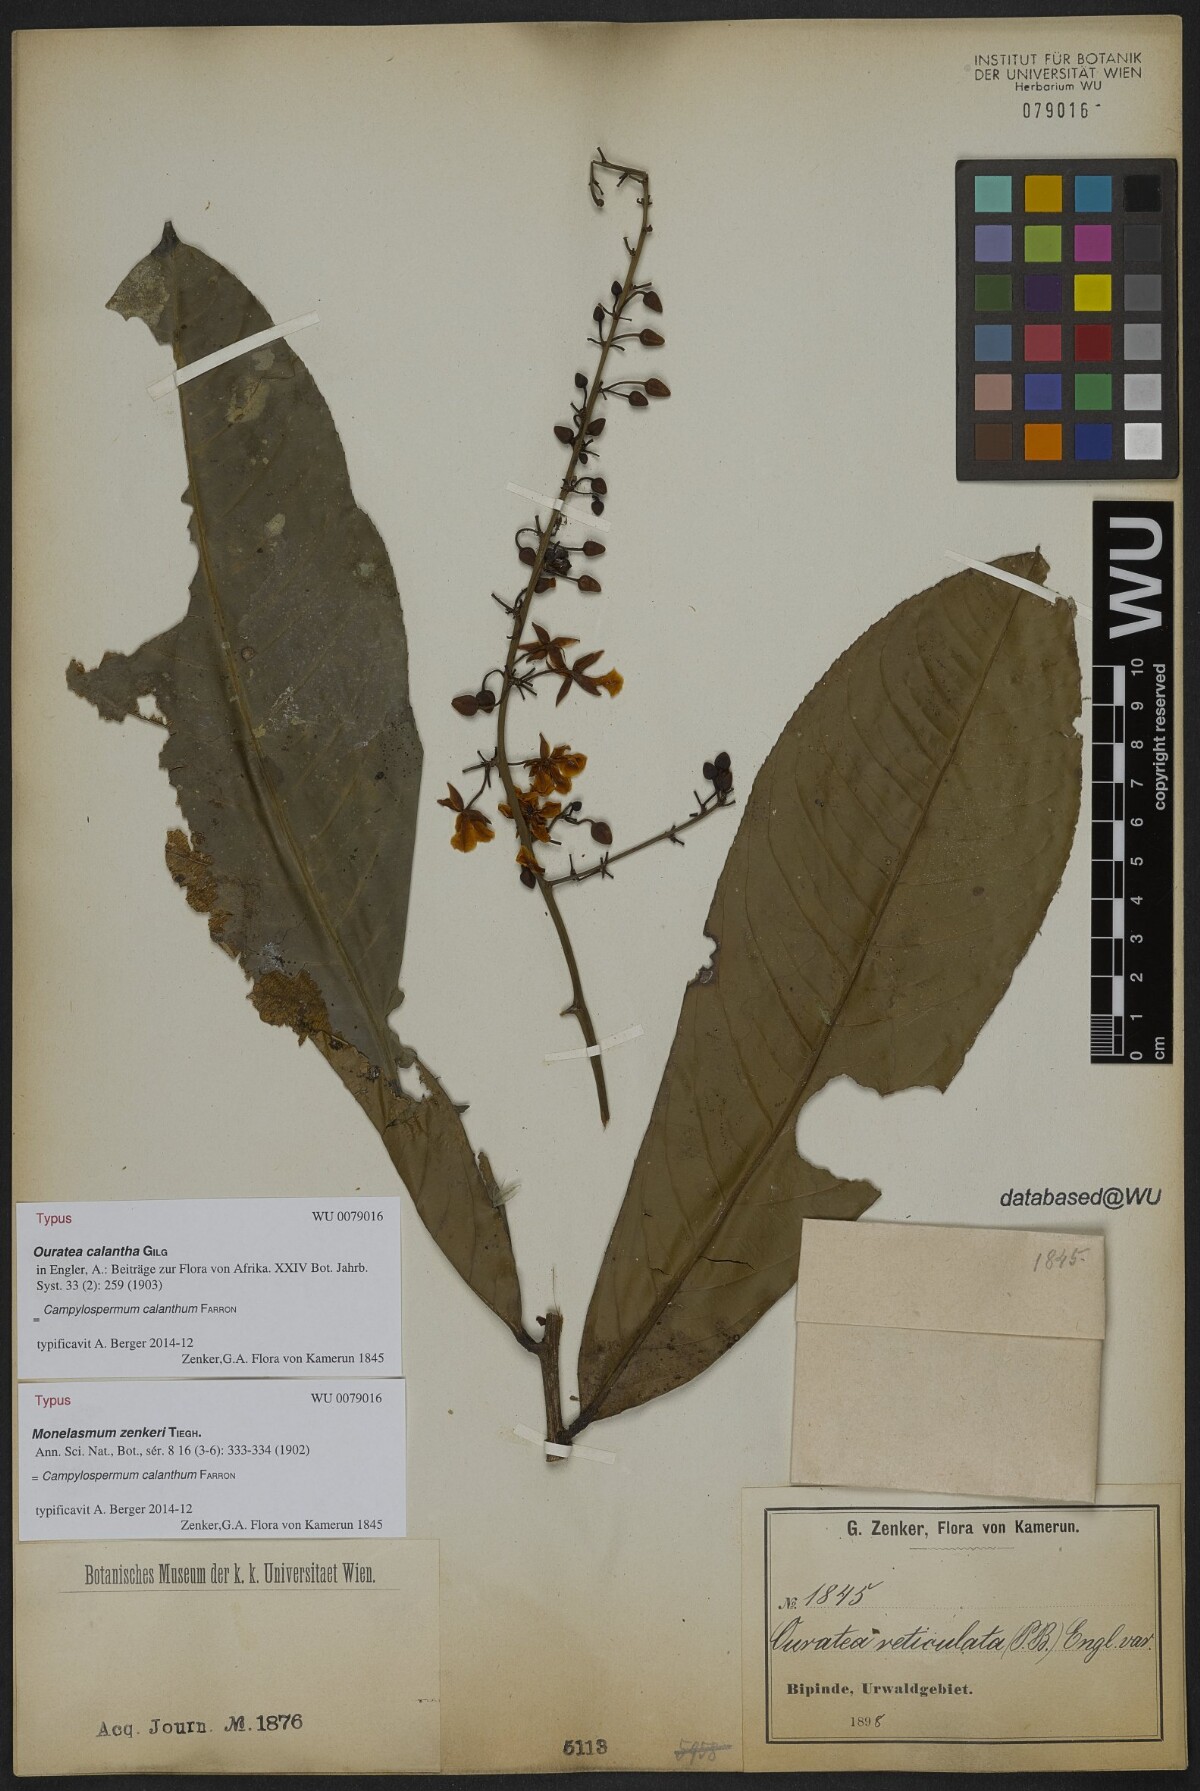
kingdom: Plantae
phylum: Tracheophyta
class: Magnoliopsida
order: Malpighiales
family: Ochnaceae
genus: Campylospermum
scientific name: Campylospermum zenkeri
